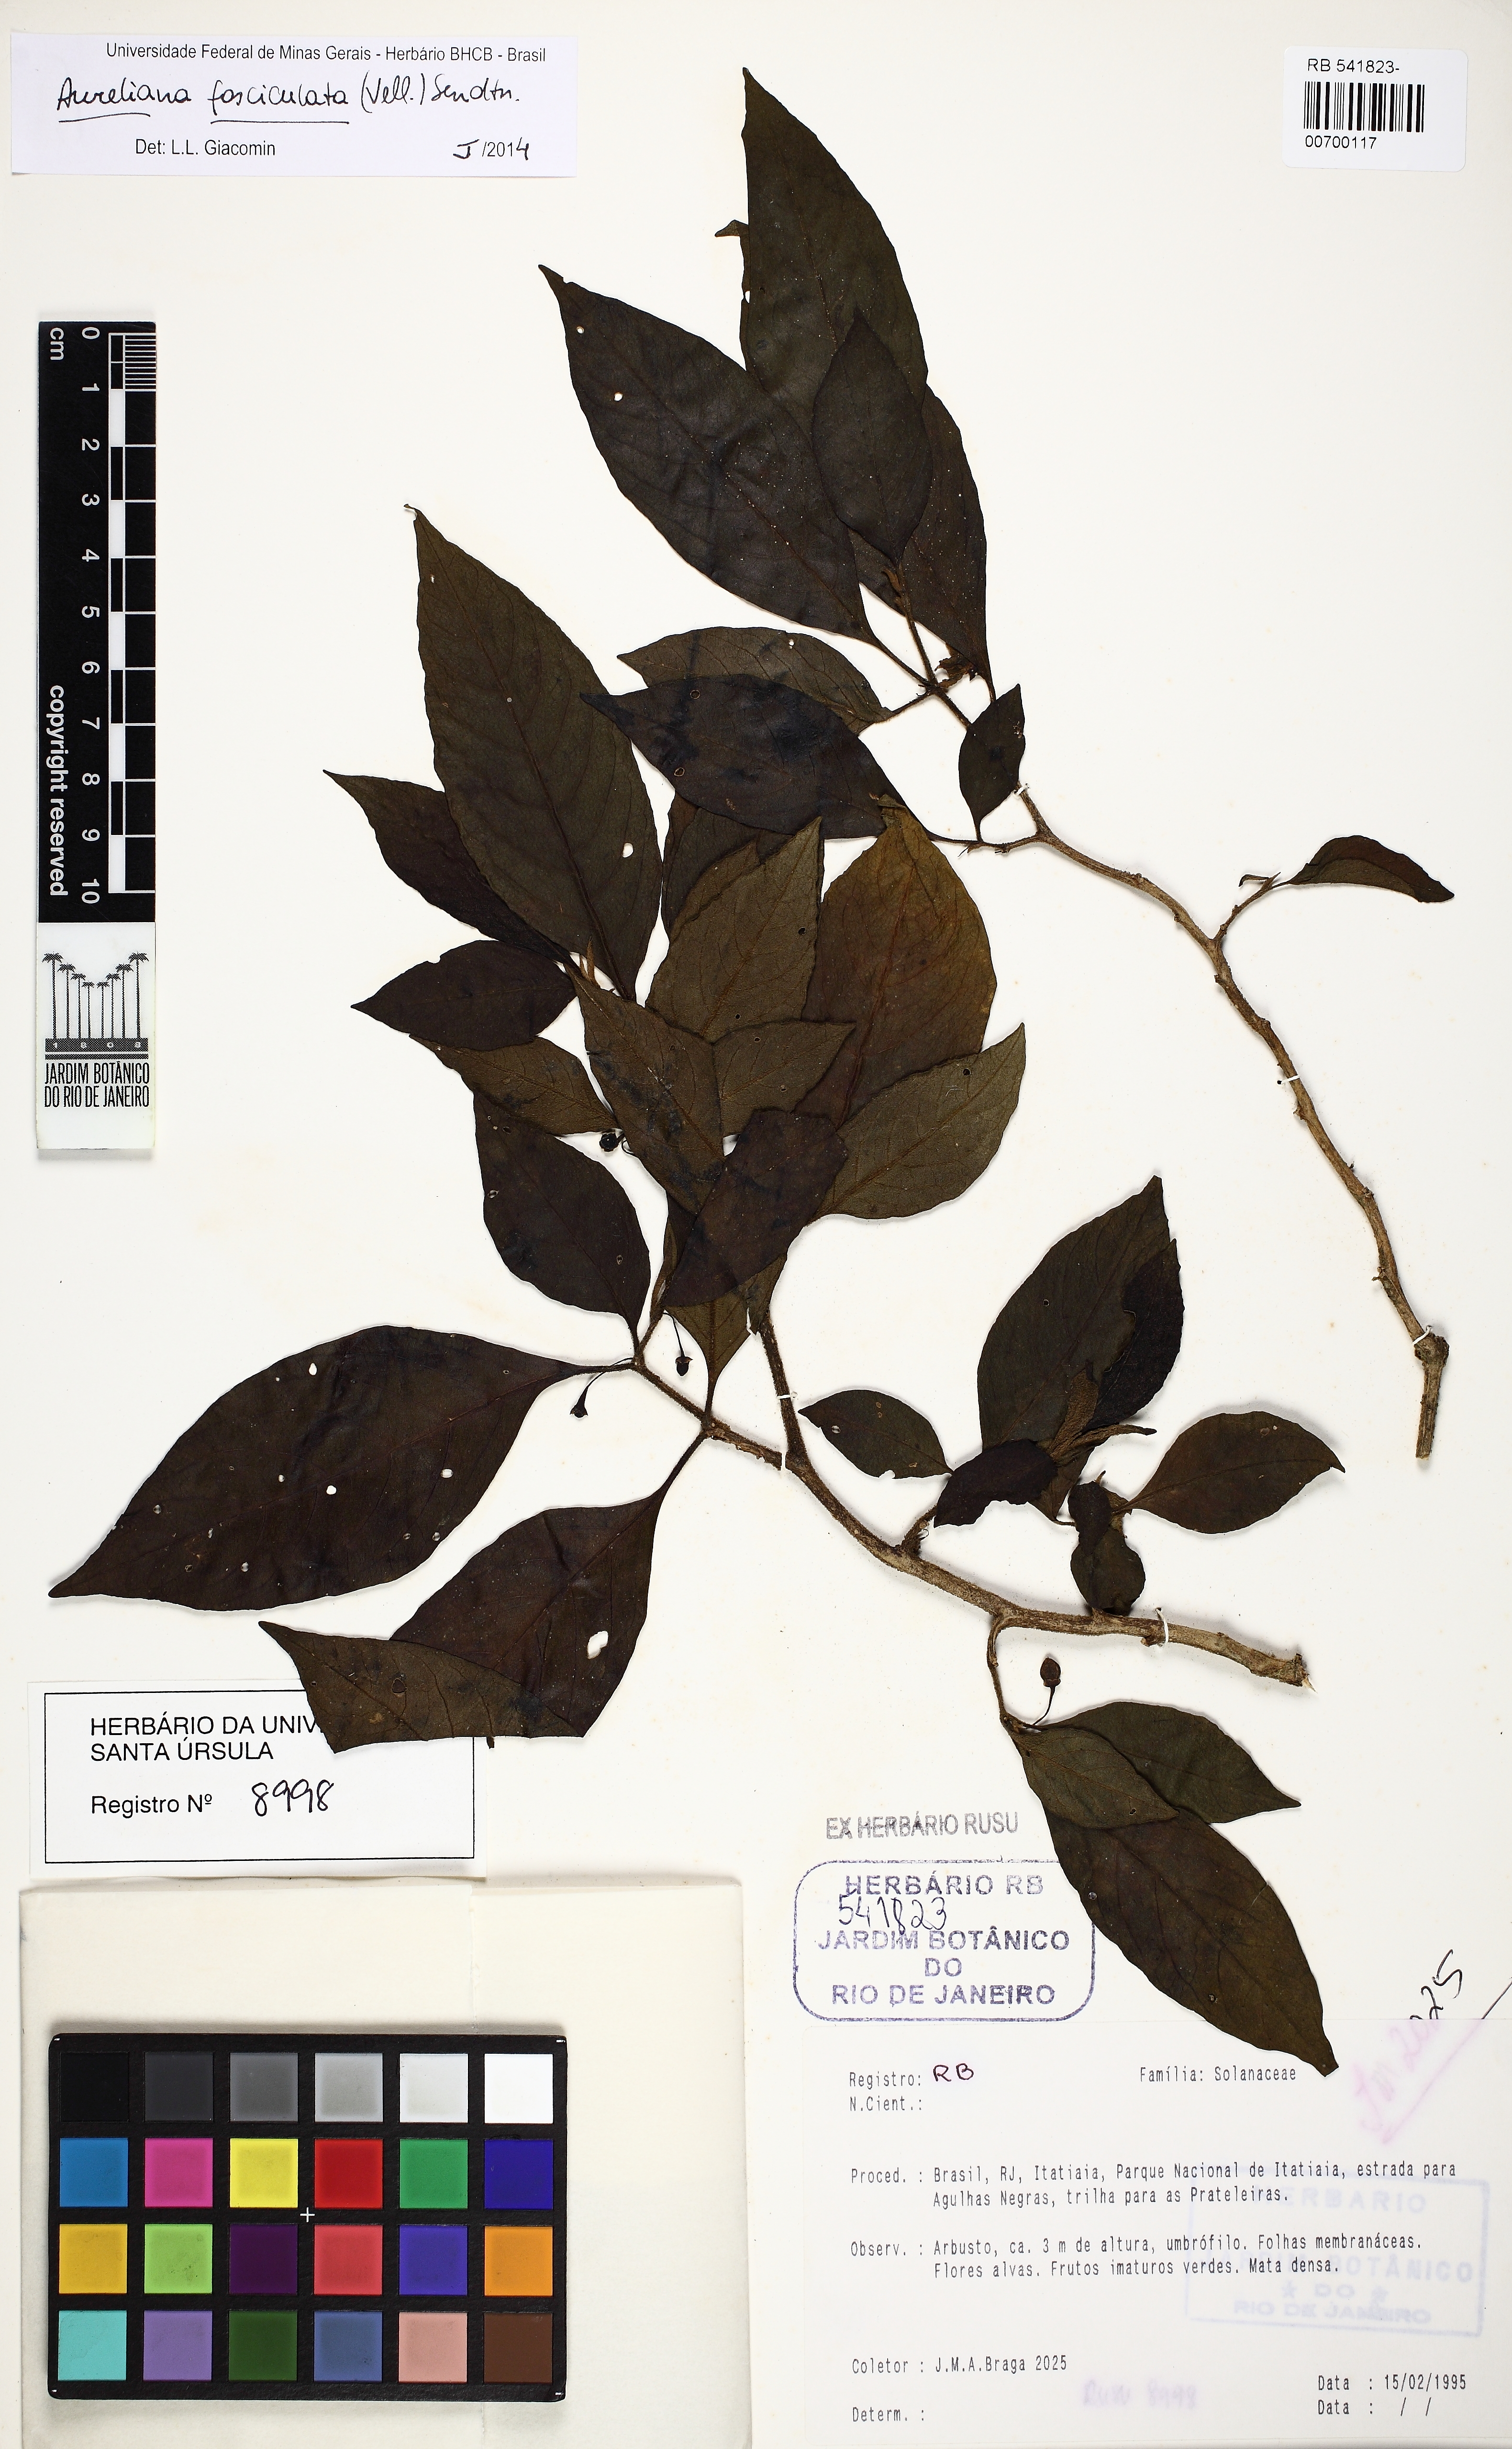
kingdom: Plantae
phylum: Tracheophyta
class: Magnoliopsida
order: Solanales
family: Solanaceae
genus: Athenaea
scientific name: Athenaea fasciculata
